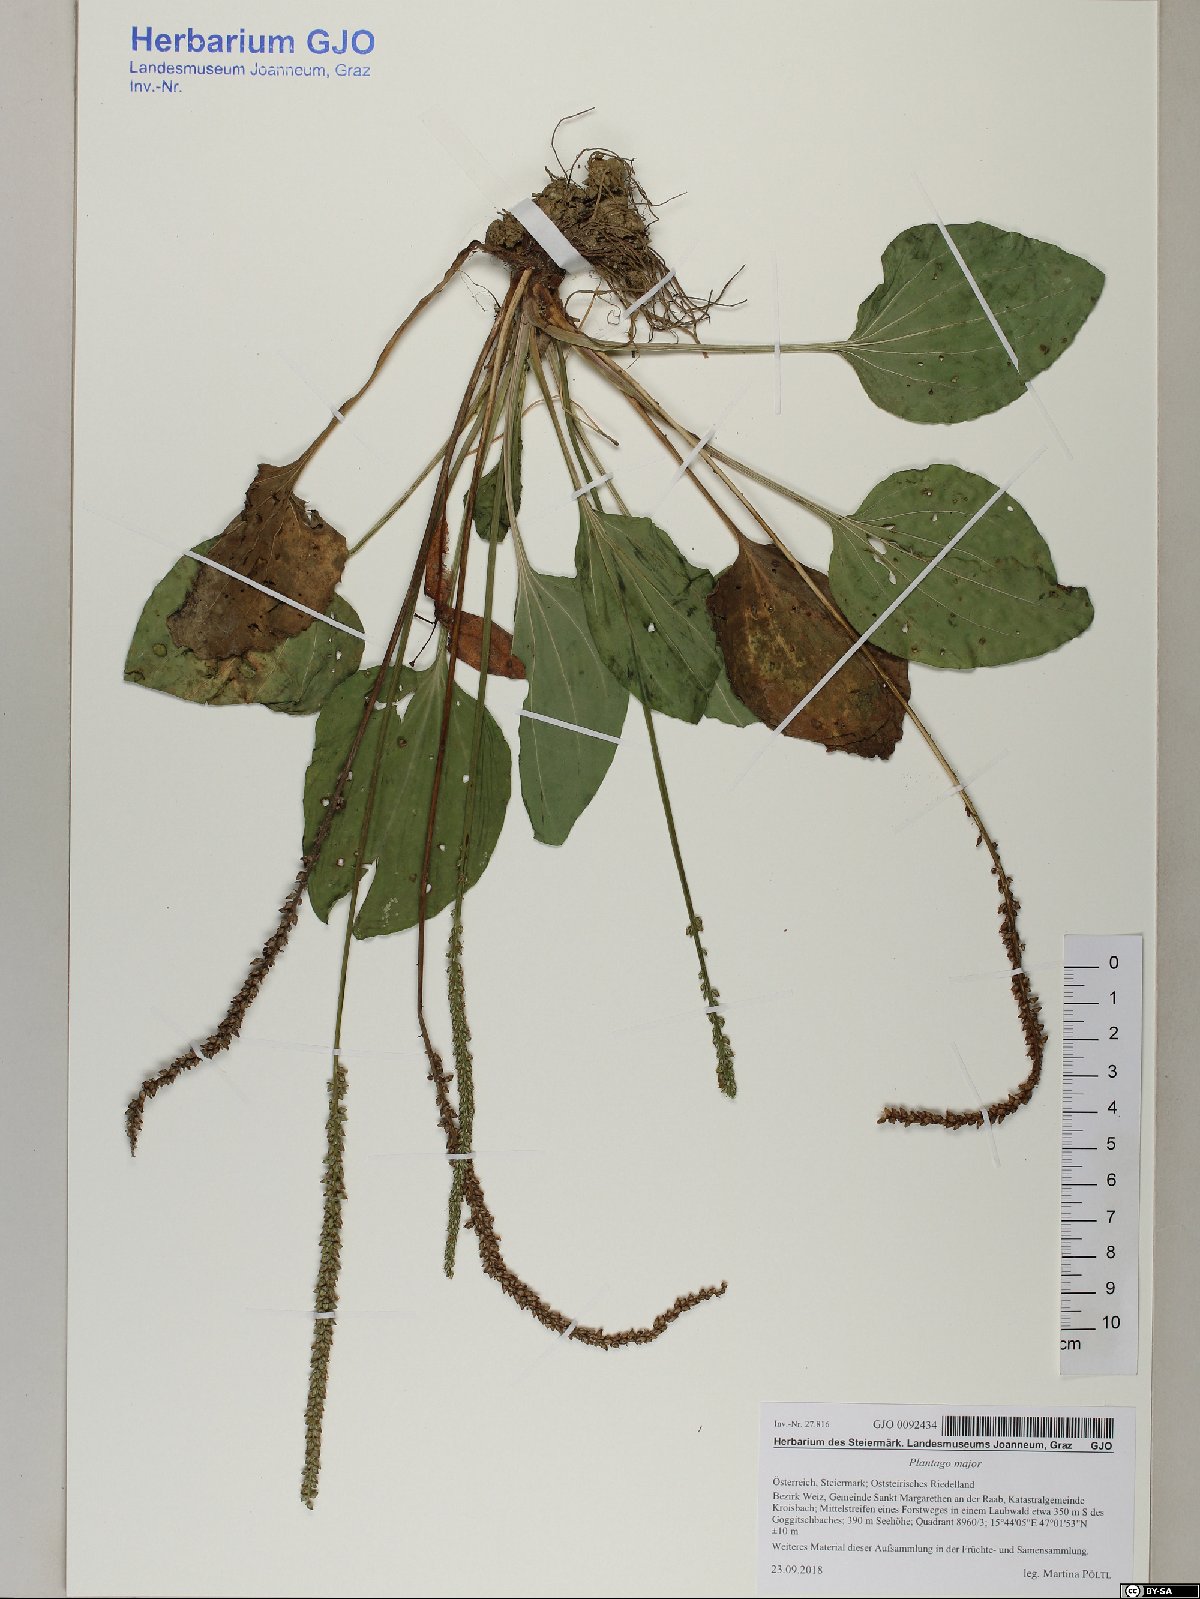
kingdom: Plantae
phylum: Tracheophyta
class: Magnoliopsida
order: Lamiales
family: Plantaginaceae
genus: Plantago
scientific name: Plantago major
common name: Common plantain
